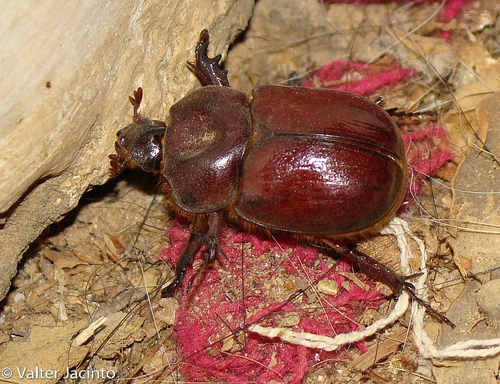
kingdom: Animalia
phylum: Arthropoda
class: Insecta
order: Coleoptera
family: Scarabaeidae
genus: Phyllognathus
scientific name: Phyllognathus excavatus
